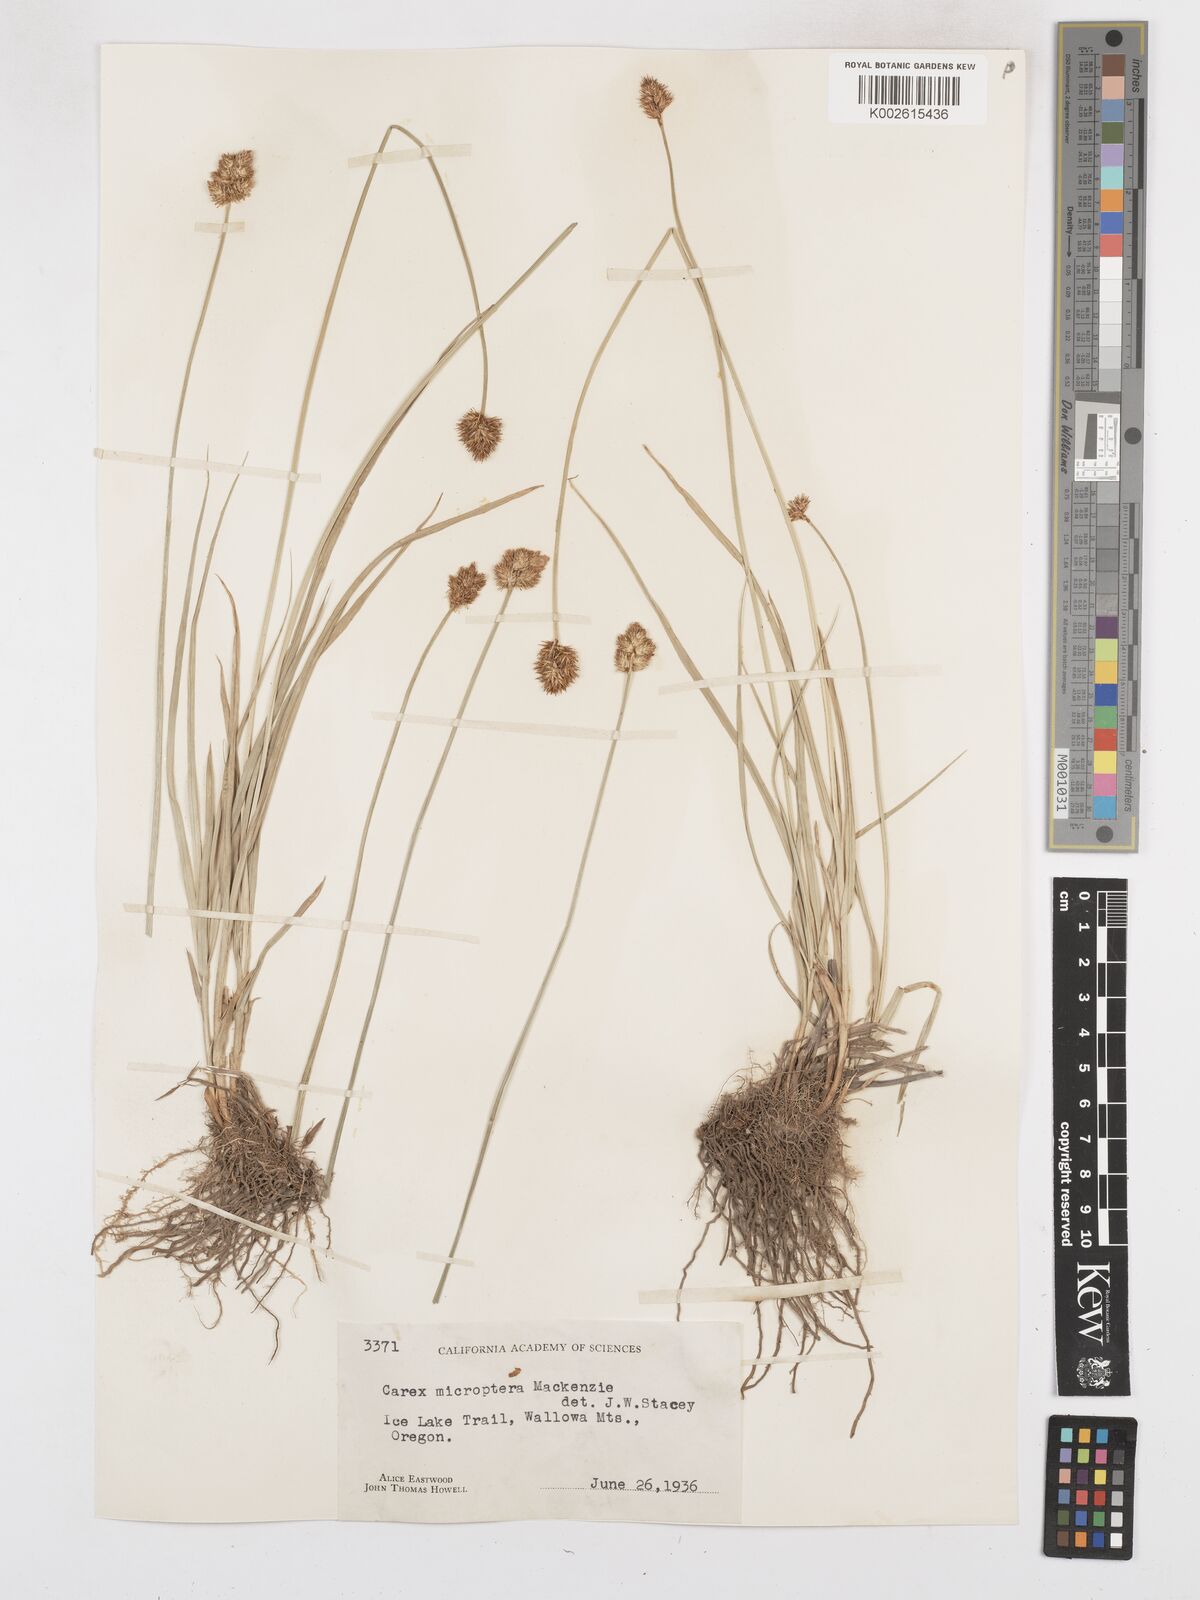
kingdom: Plantae
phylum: Tracheophyta
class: Liliopsida
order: Poales
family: Cyperaceae
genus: Carex
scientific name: Carex microptera
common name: Oval-headed sedge
